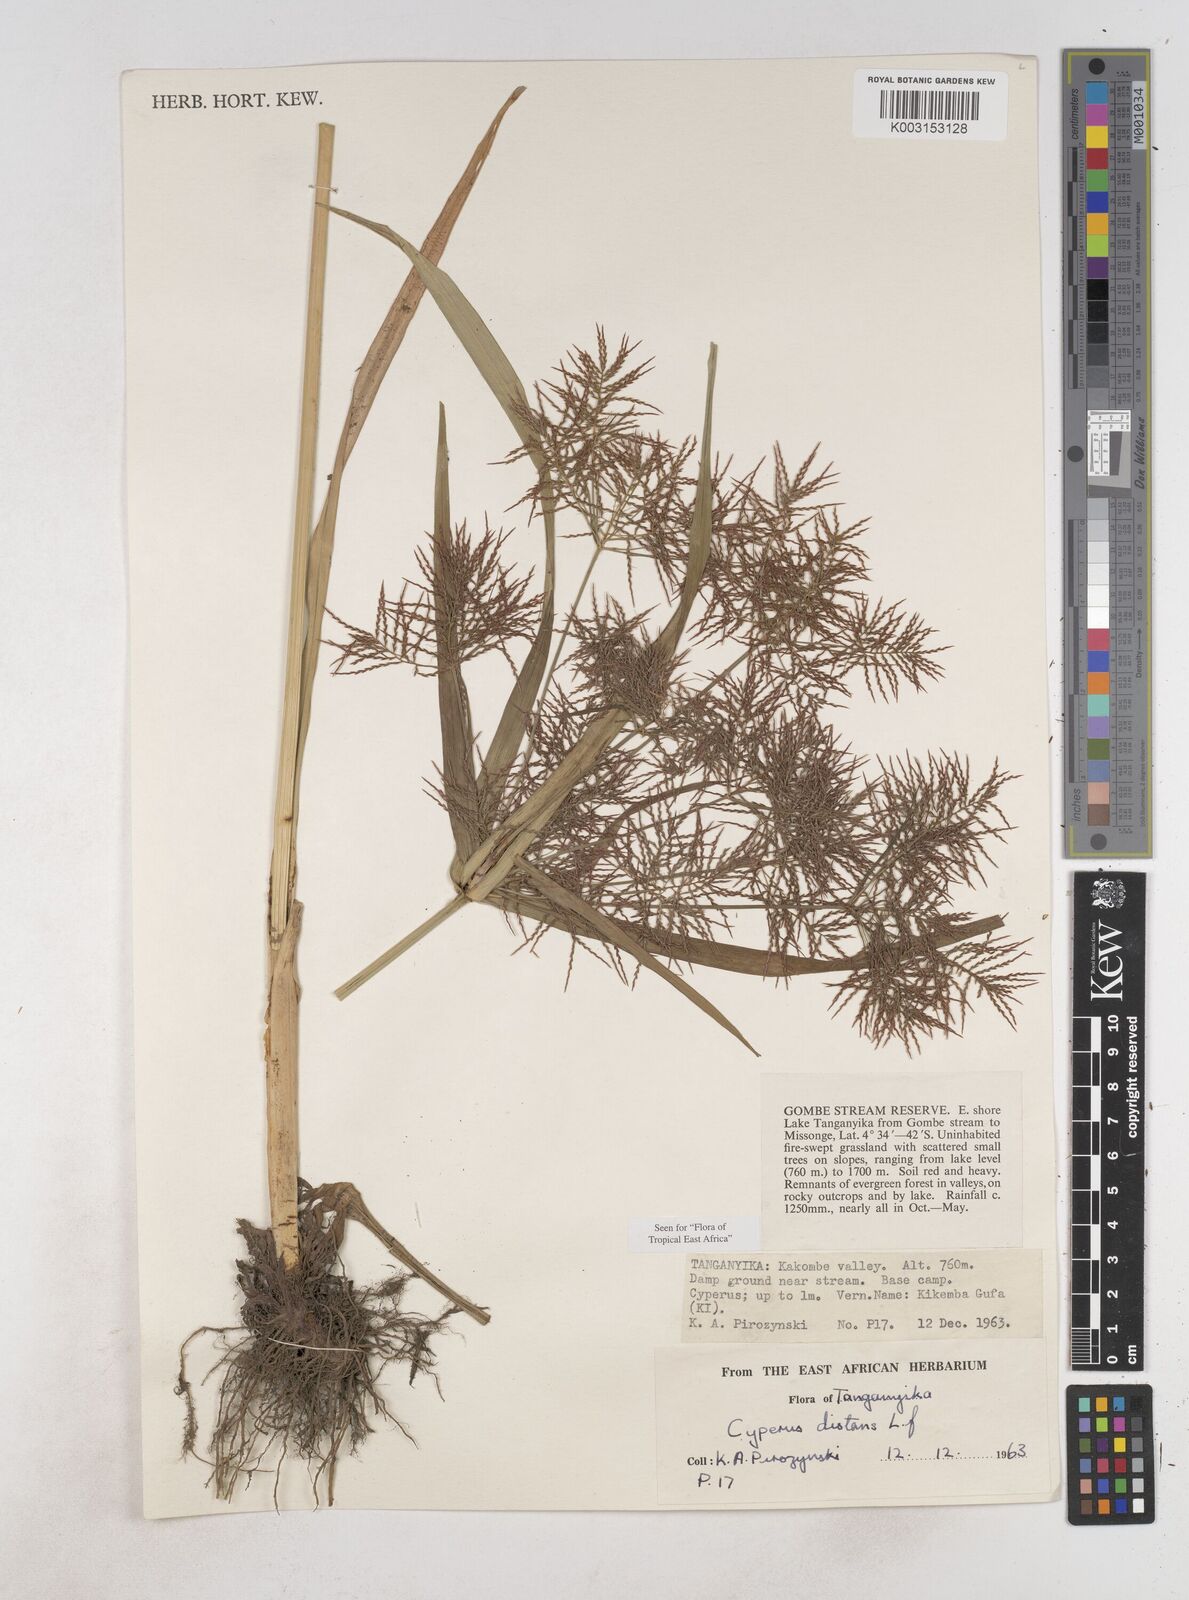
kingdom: Plantae
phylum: Tracheophyta
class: Liliopsida
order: Poales
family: Cyperaceae
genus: Cyperus
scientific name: Cyperus distans
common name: Slender cyperus
